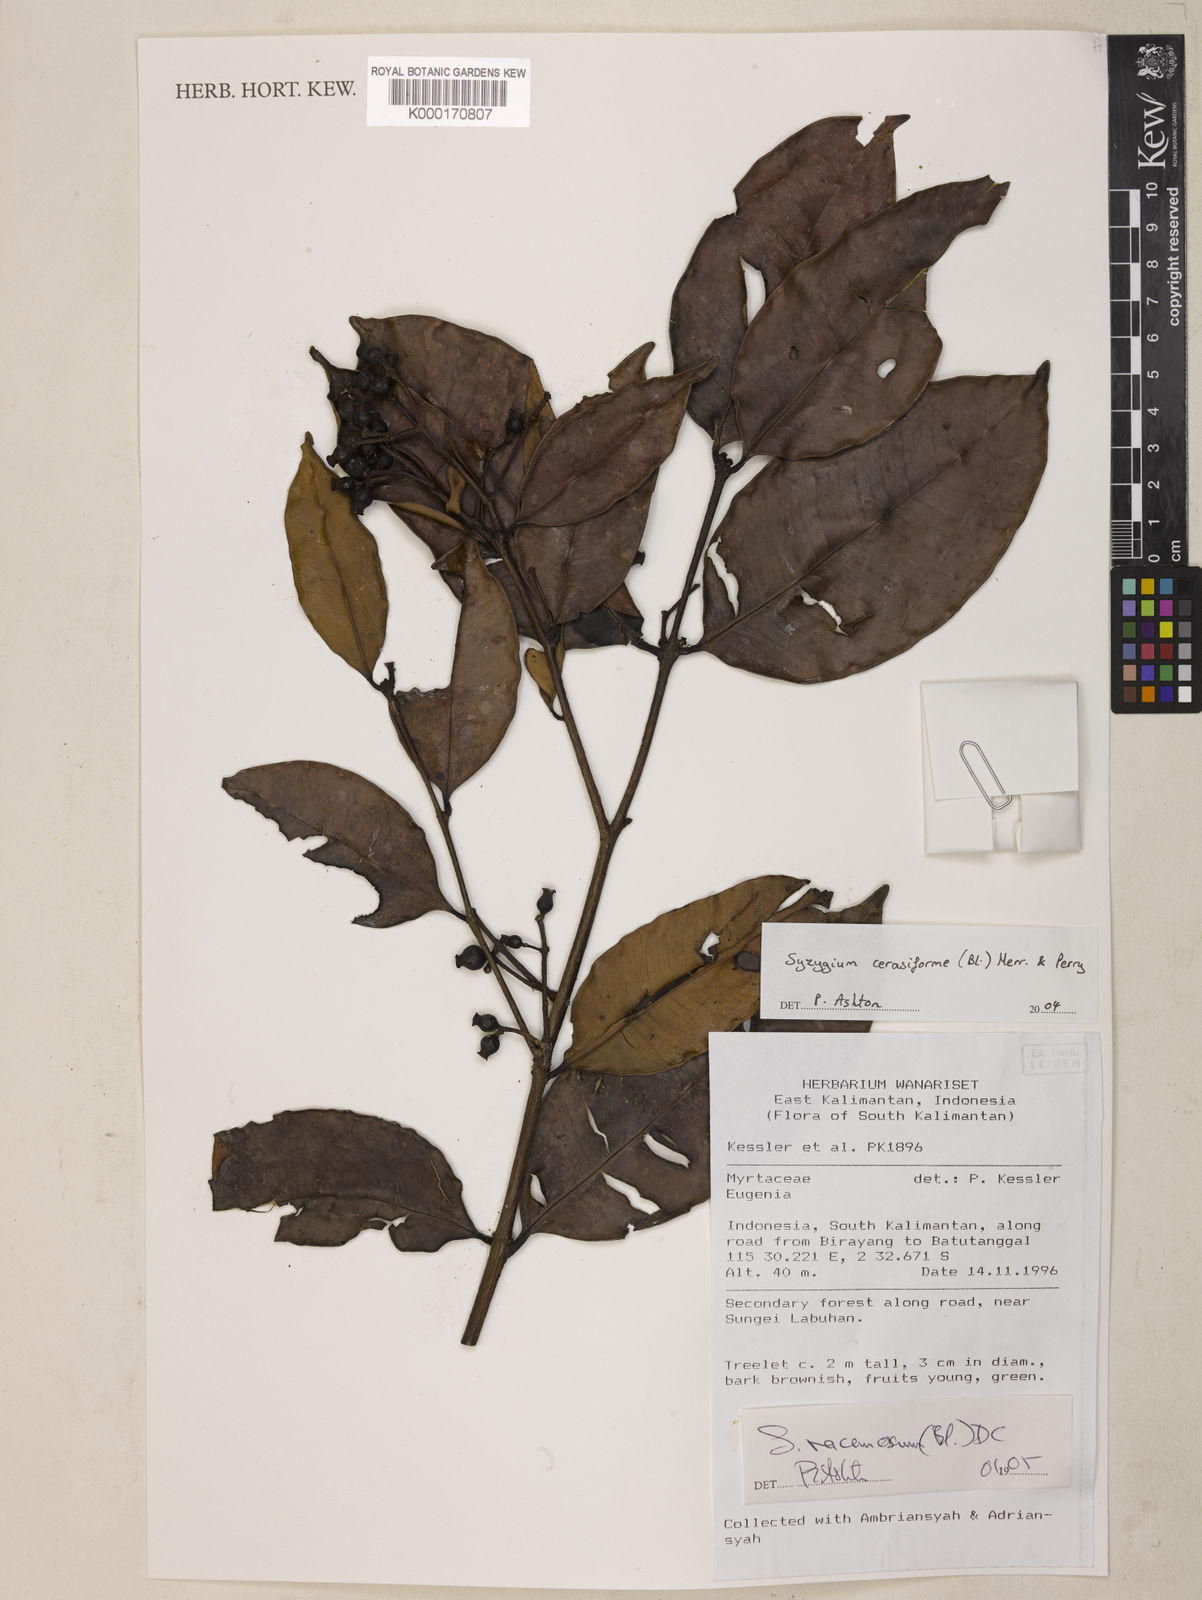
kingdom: Plantae
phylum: Tracheophyta
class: Magnoliopsida
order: Myrtales
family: Myrtaceae
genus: Syzygium
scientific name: Syzygium racemosum
